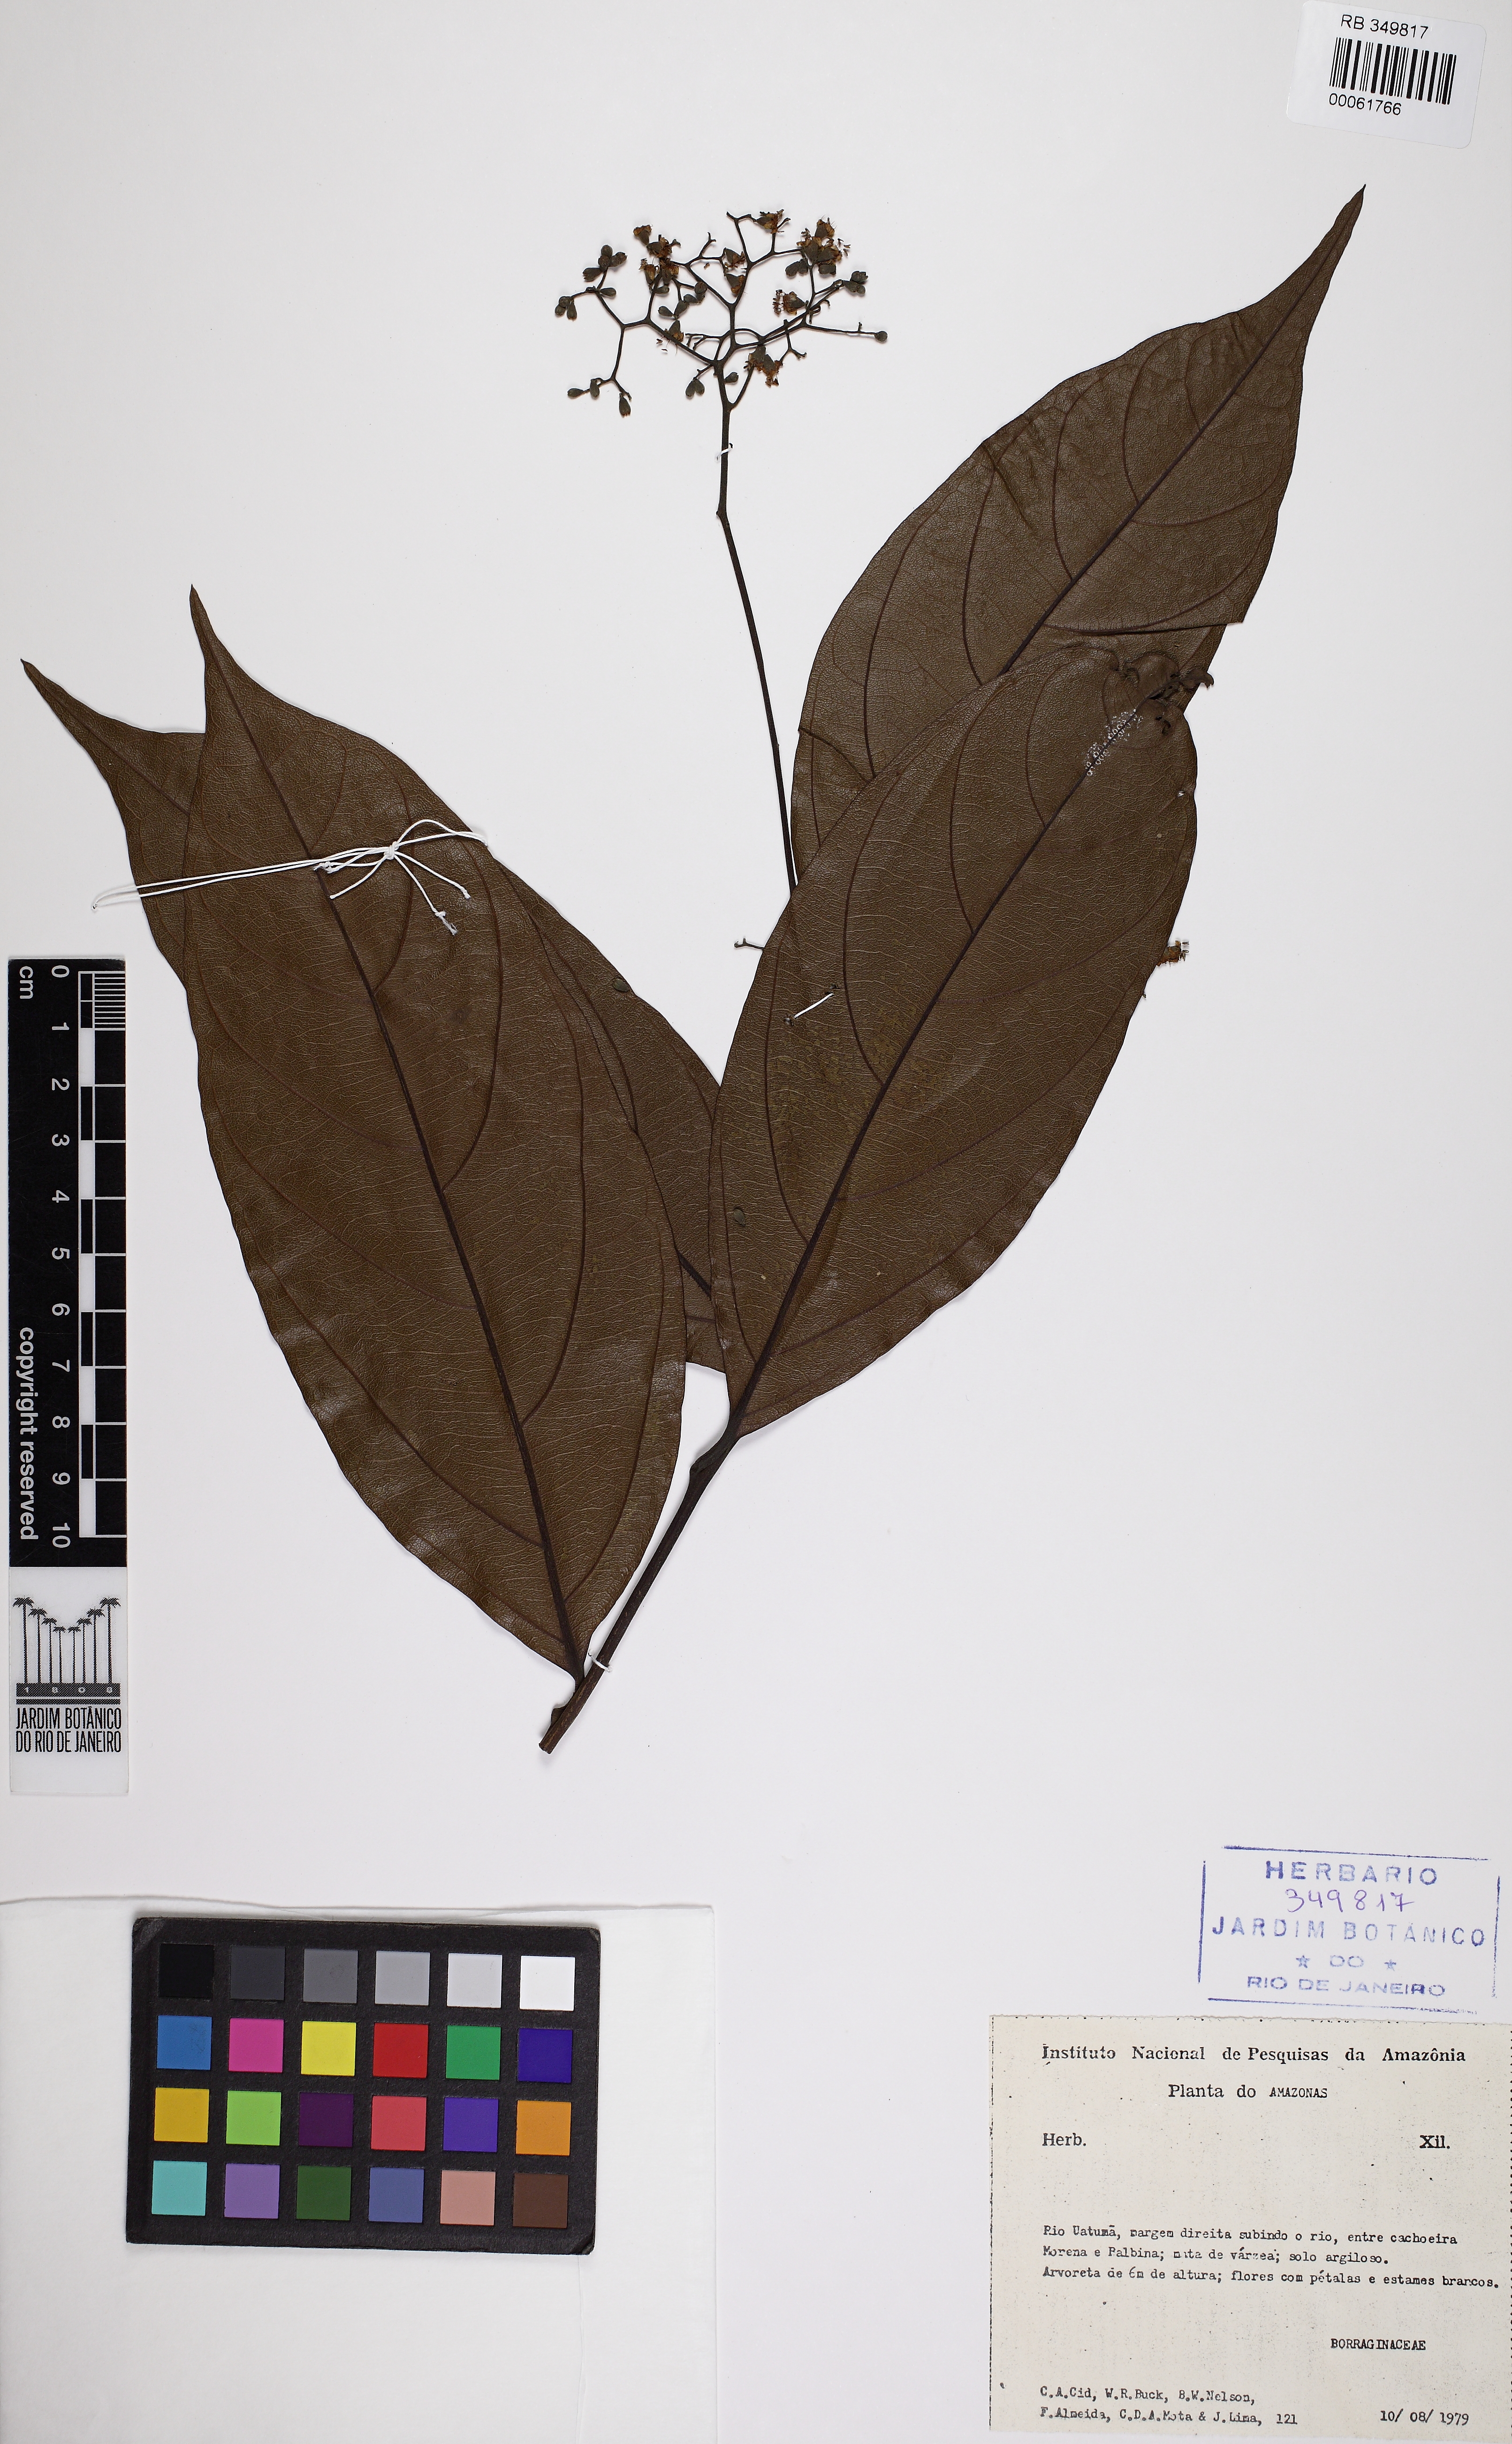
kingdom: Plantae
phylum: Tracheophyta
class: Magnoliopsida
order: Boraginales
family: Boraginaceae
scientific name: Boraginaceae
